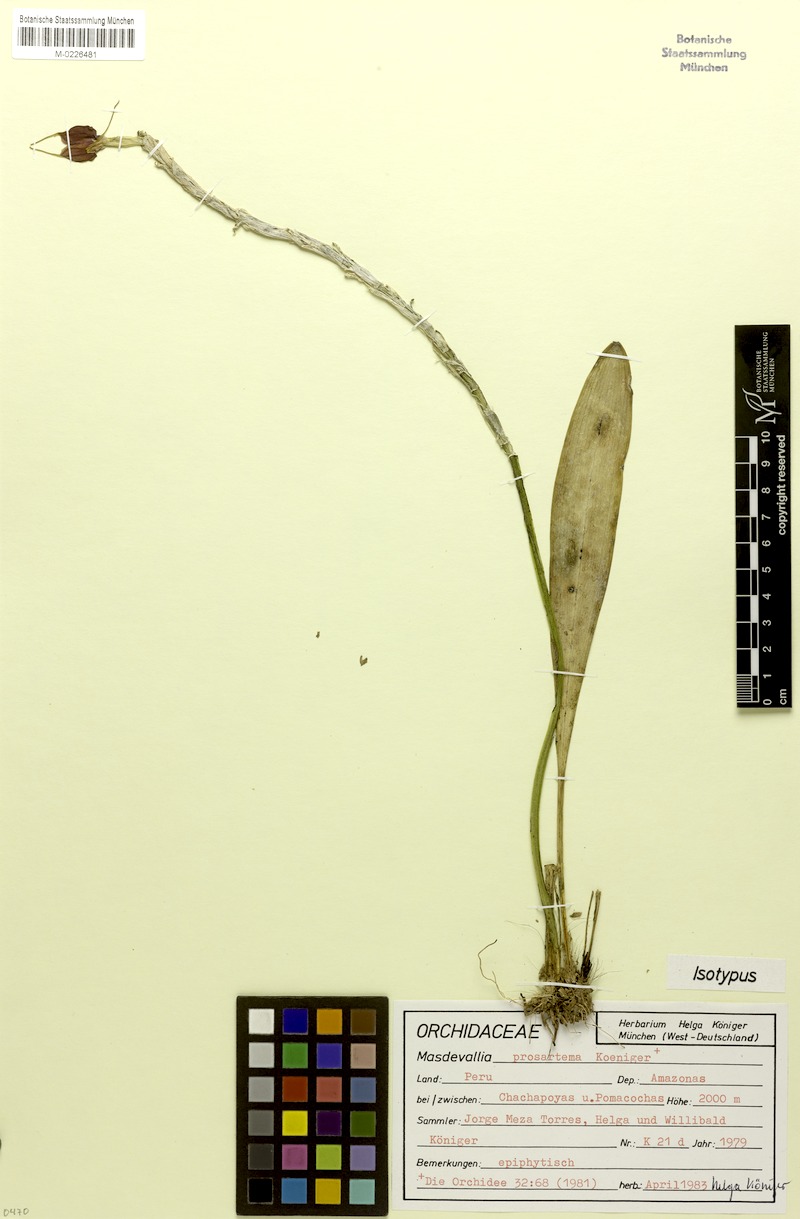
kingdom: Plantae
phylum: Tracheophyta
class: Liliopsida
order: Asparagales
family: Orchidaceae
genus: Masdevallia
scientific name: Masdevallia prosartema
